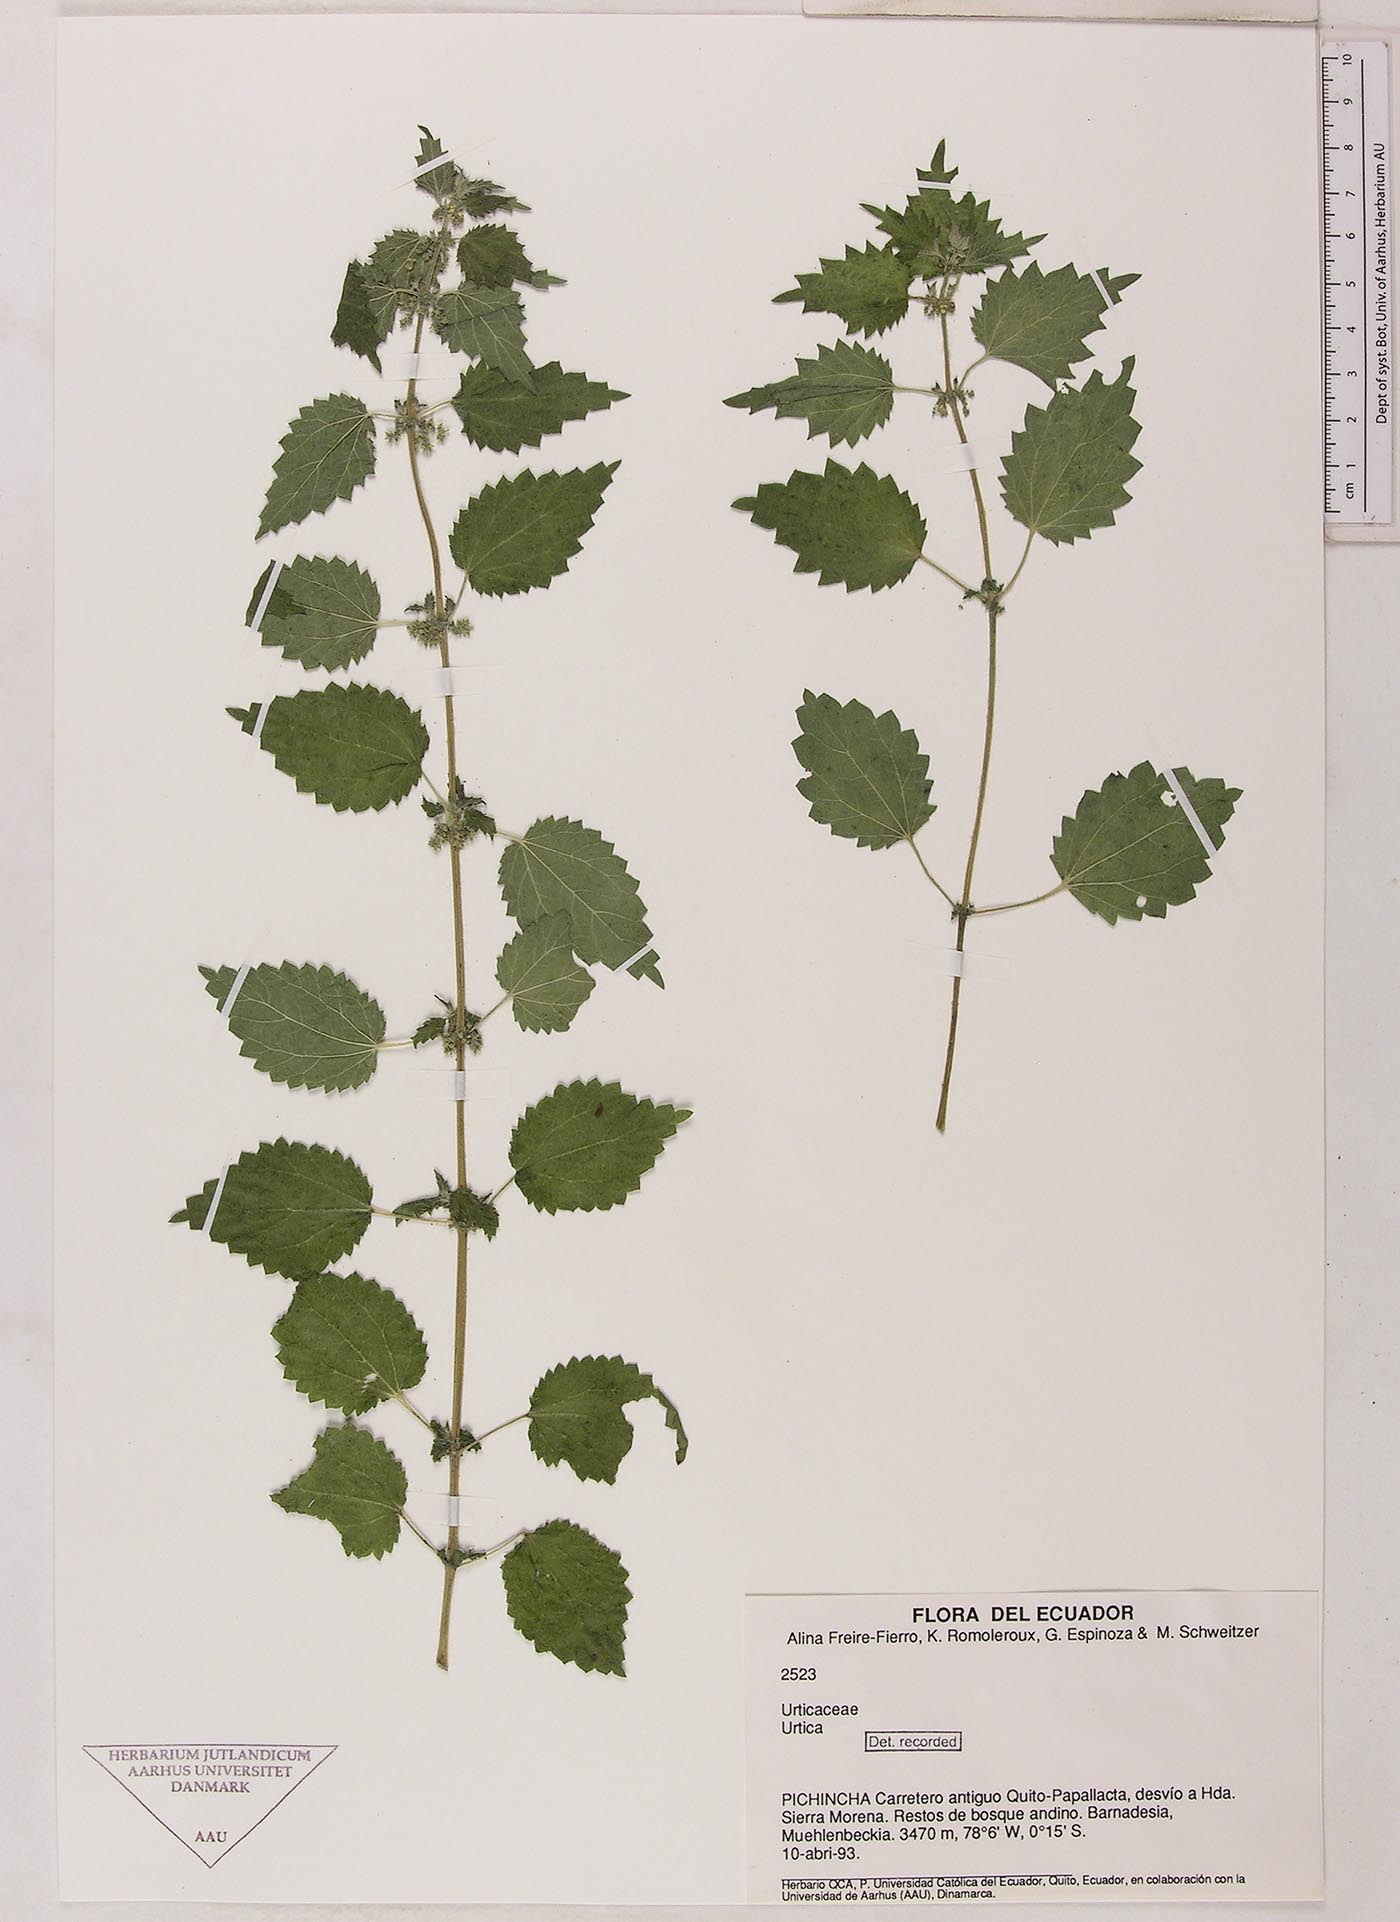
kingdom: Plantae
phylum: Tracheophyta
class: Magnoliopsida
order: Rosales
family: Urticaceae
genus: Urtica
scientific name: Urtica
